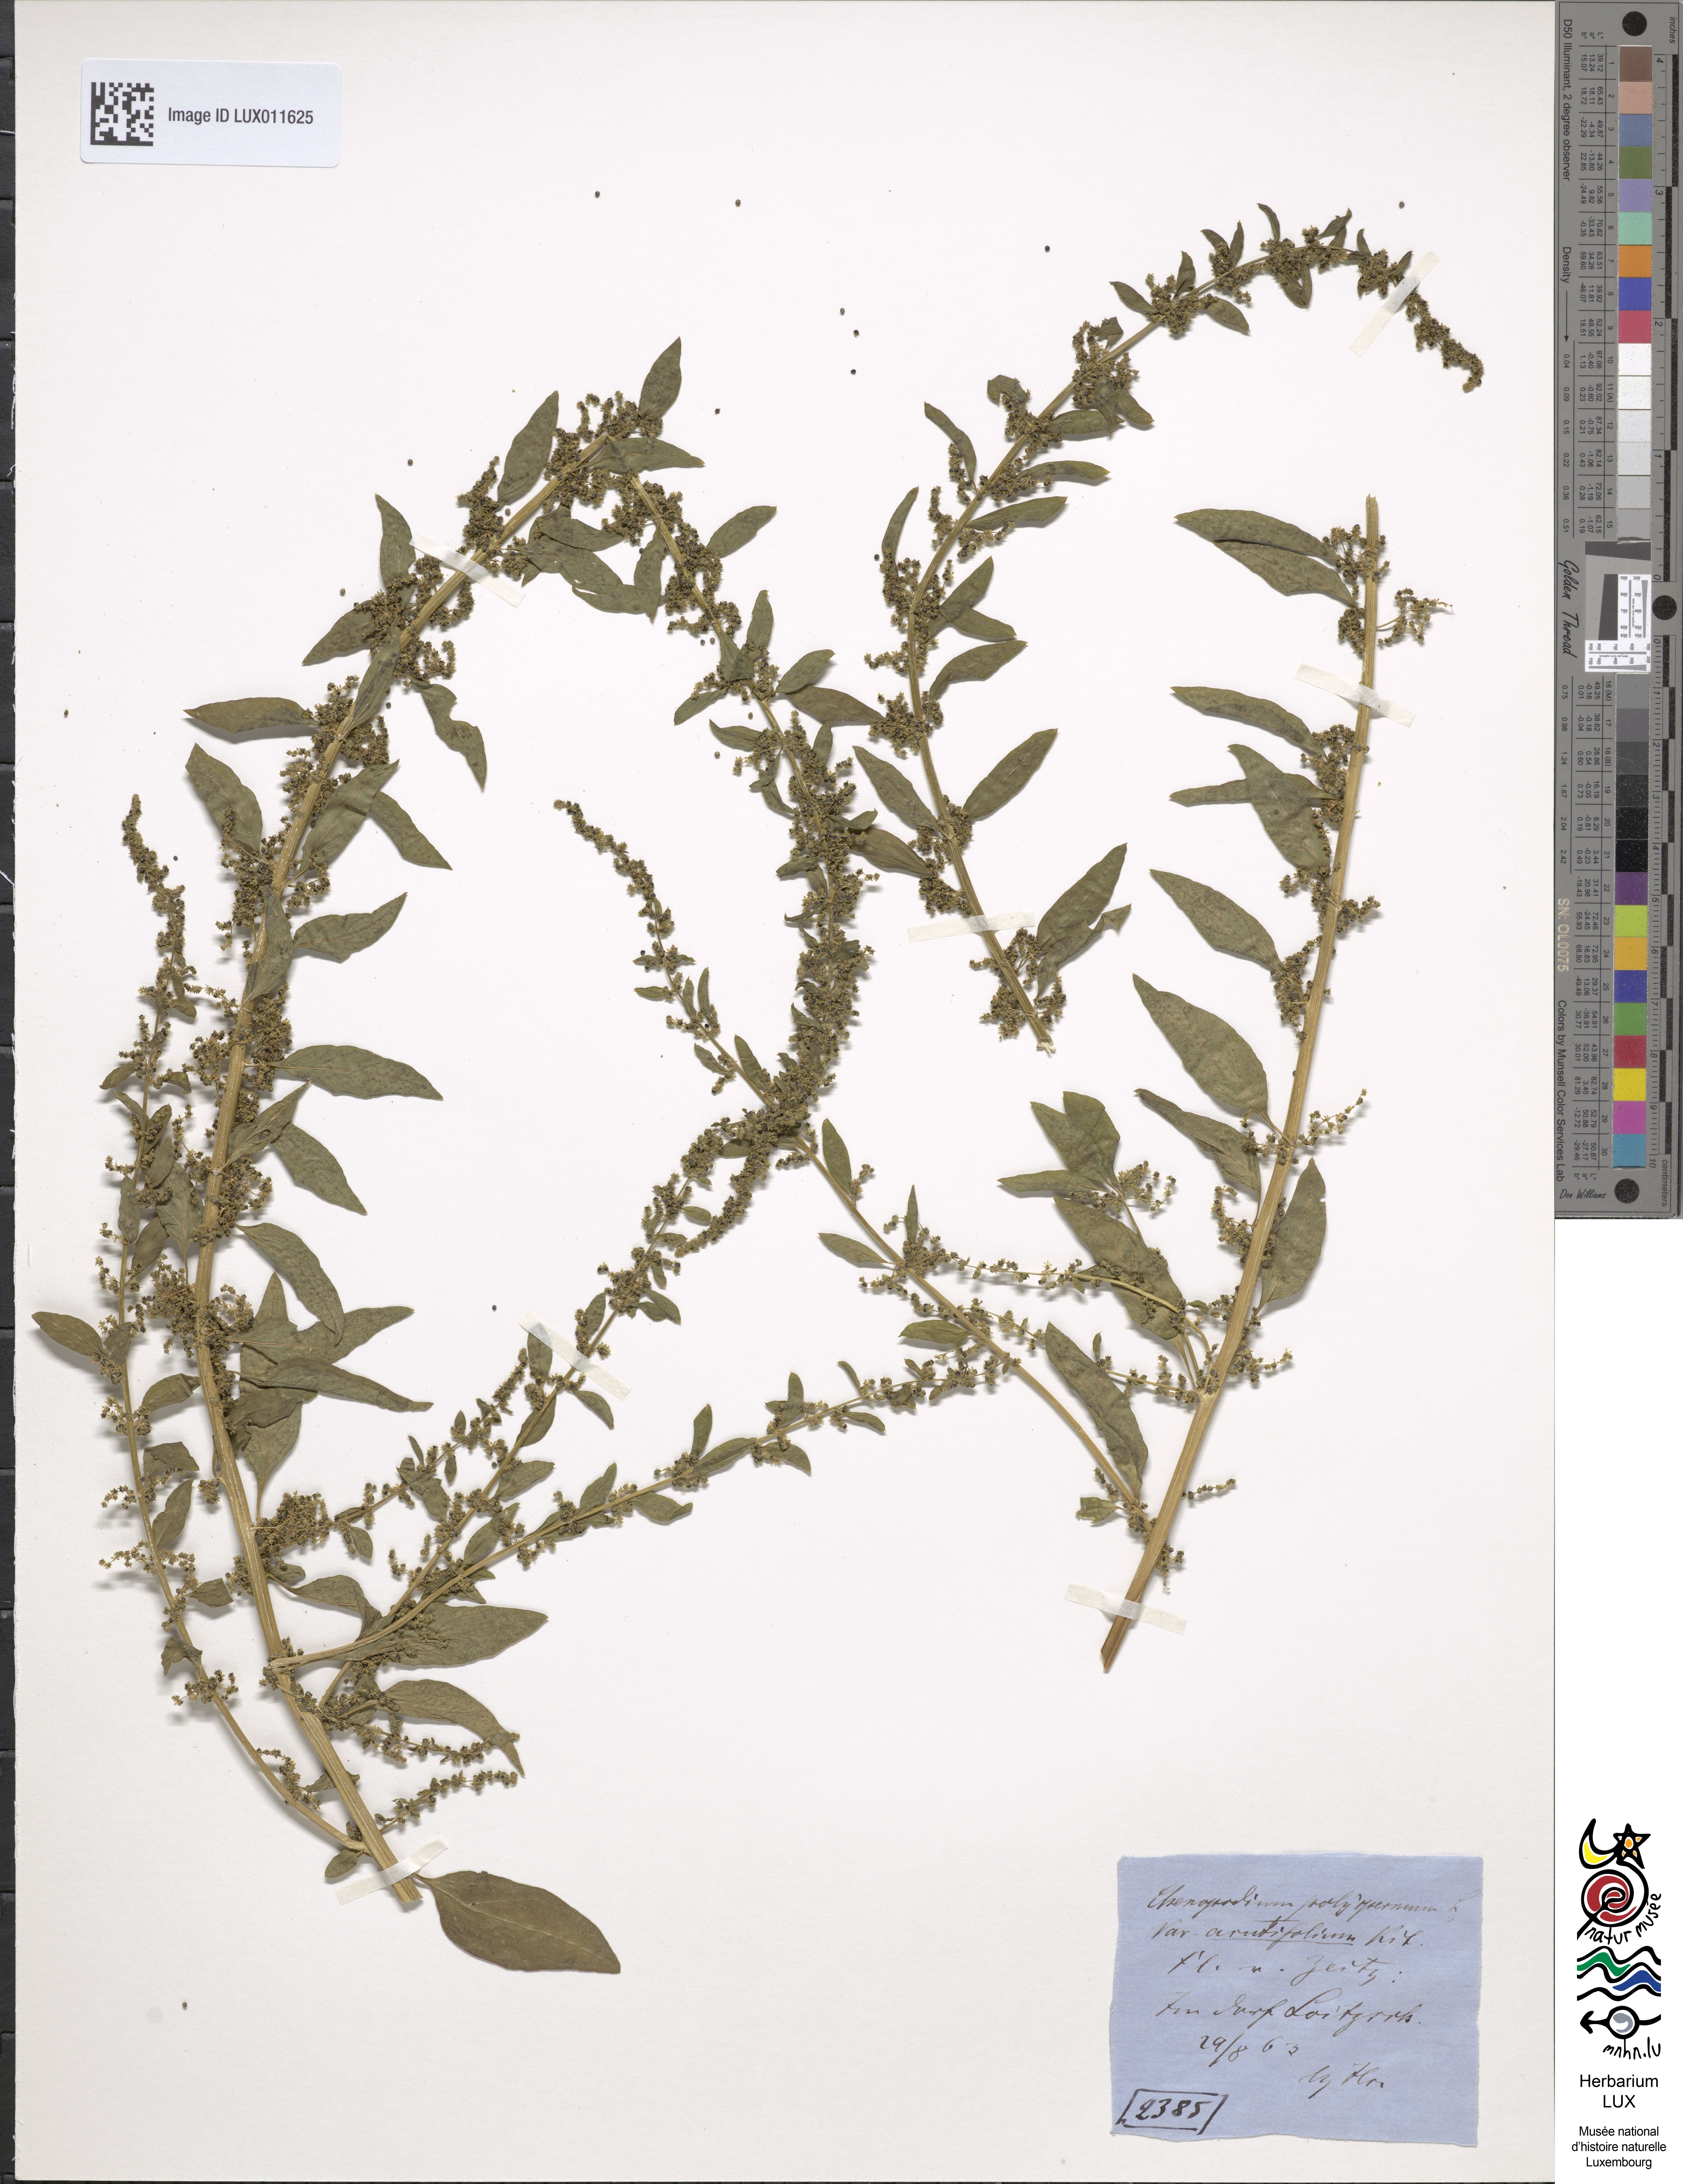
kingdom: Plantae
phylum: Tracheophyta
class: Magnoliopsida
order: Caryophyllales
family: Amaranthaceae
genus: Lipandra
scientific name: Lipandra polysperma
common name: Many-seed goosefoot
